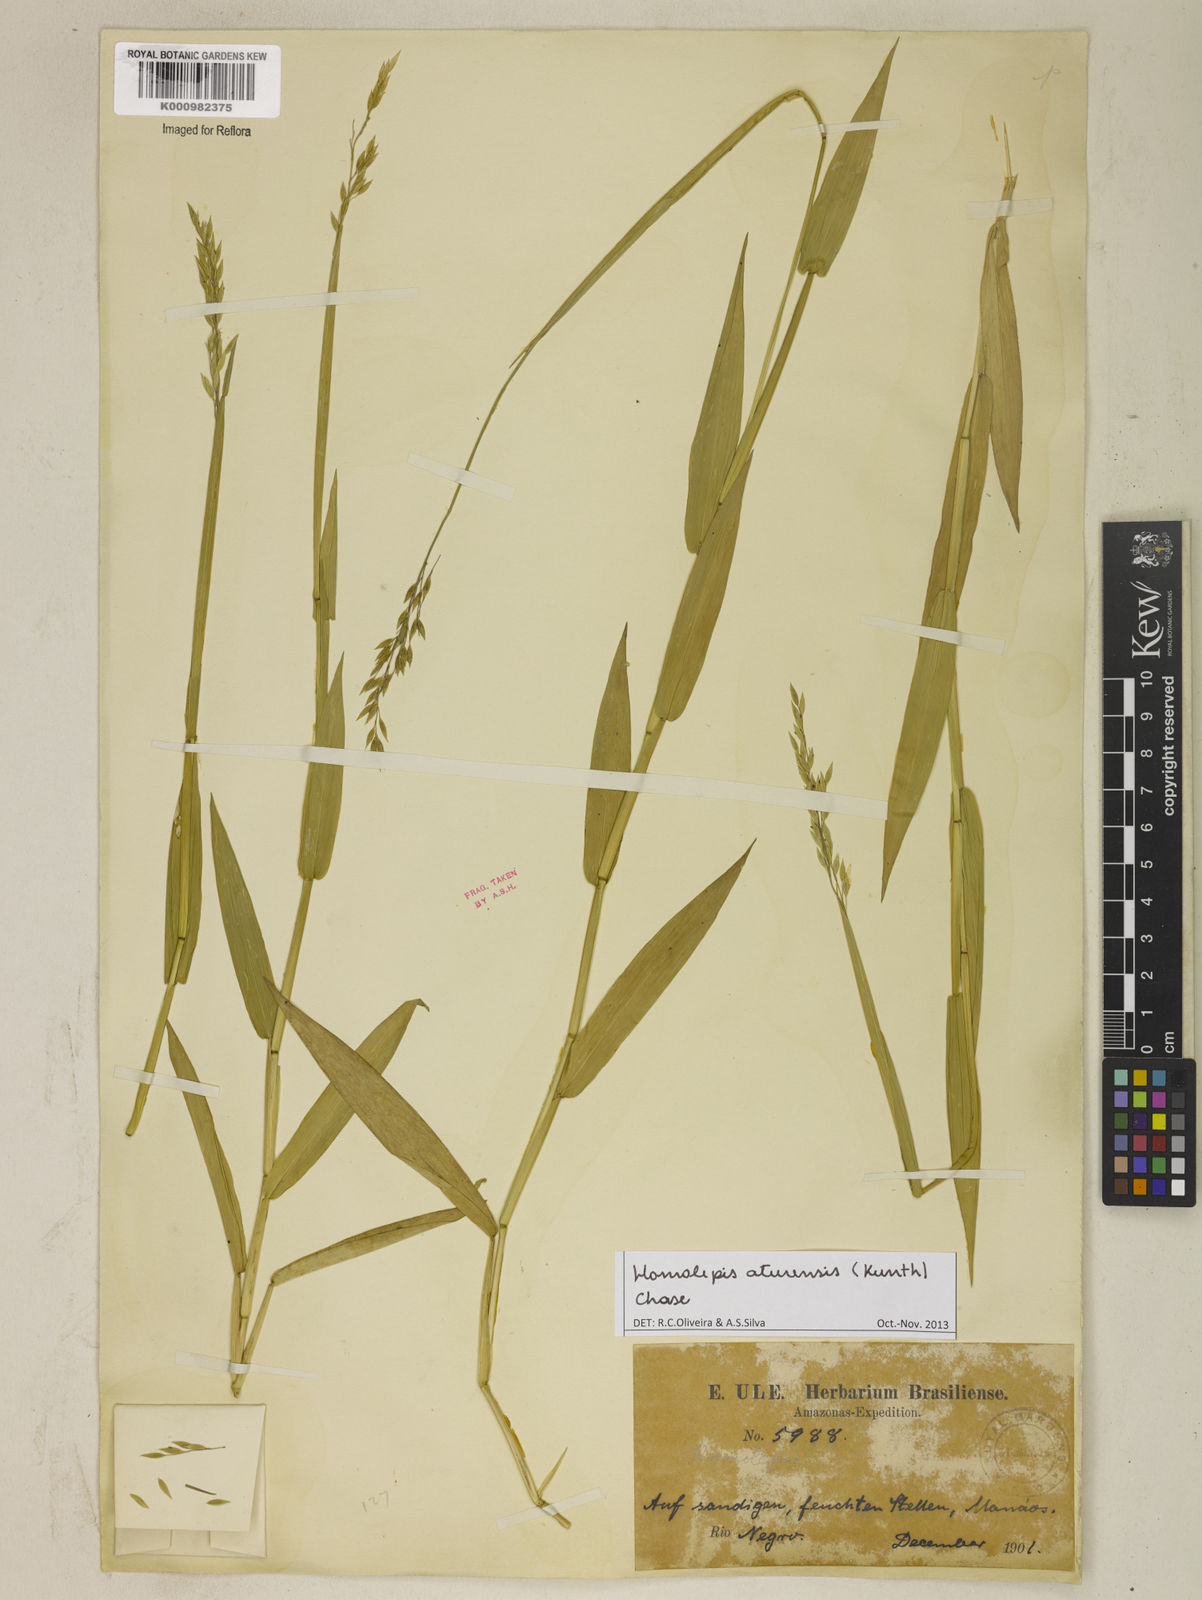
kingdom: Plantae
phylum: Tracheophyta
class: Liliopsida
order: Poales
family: Poaceae
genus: Homolepis
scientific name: Homolepis aturensis
